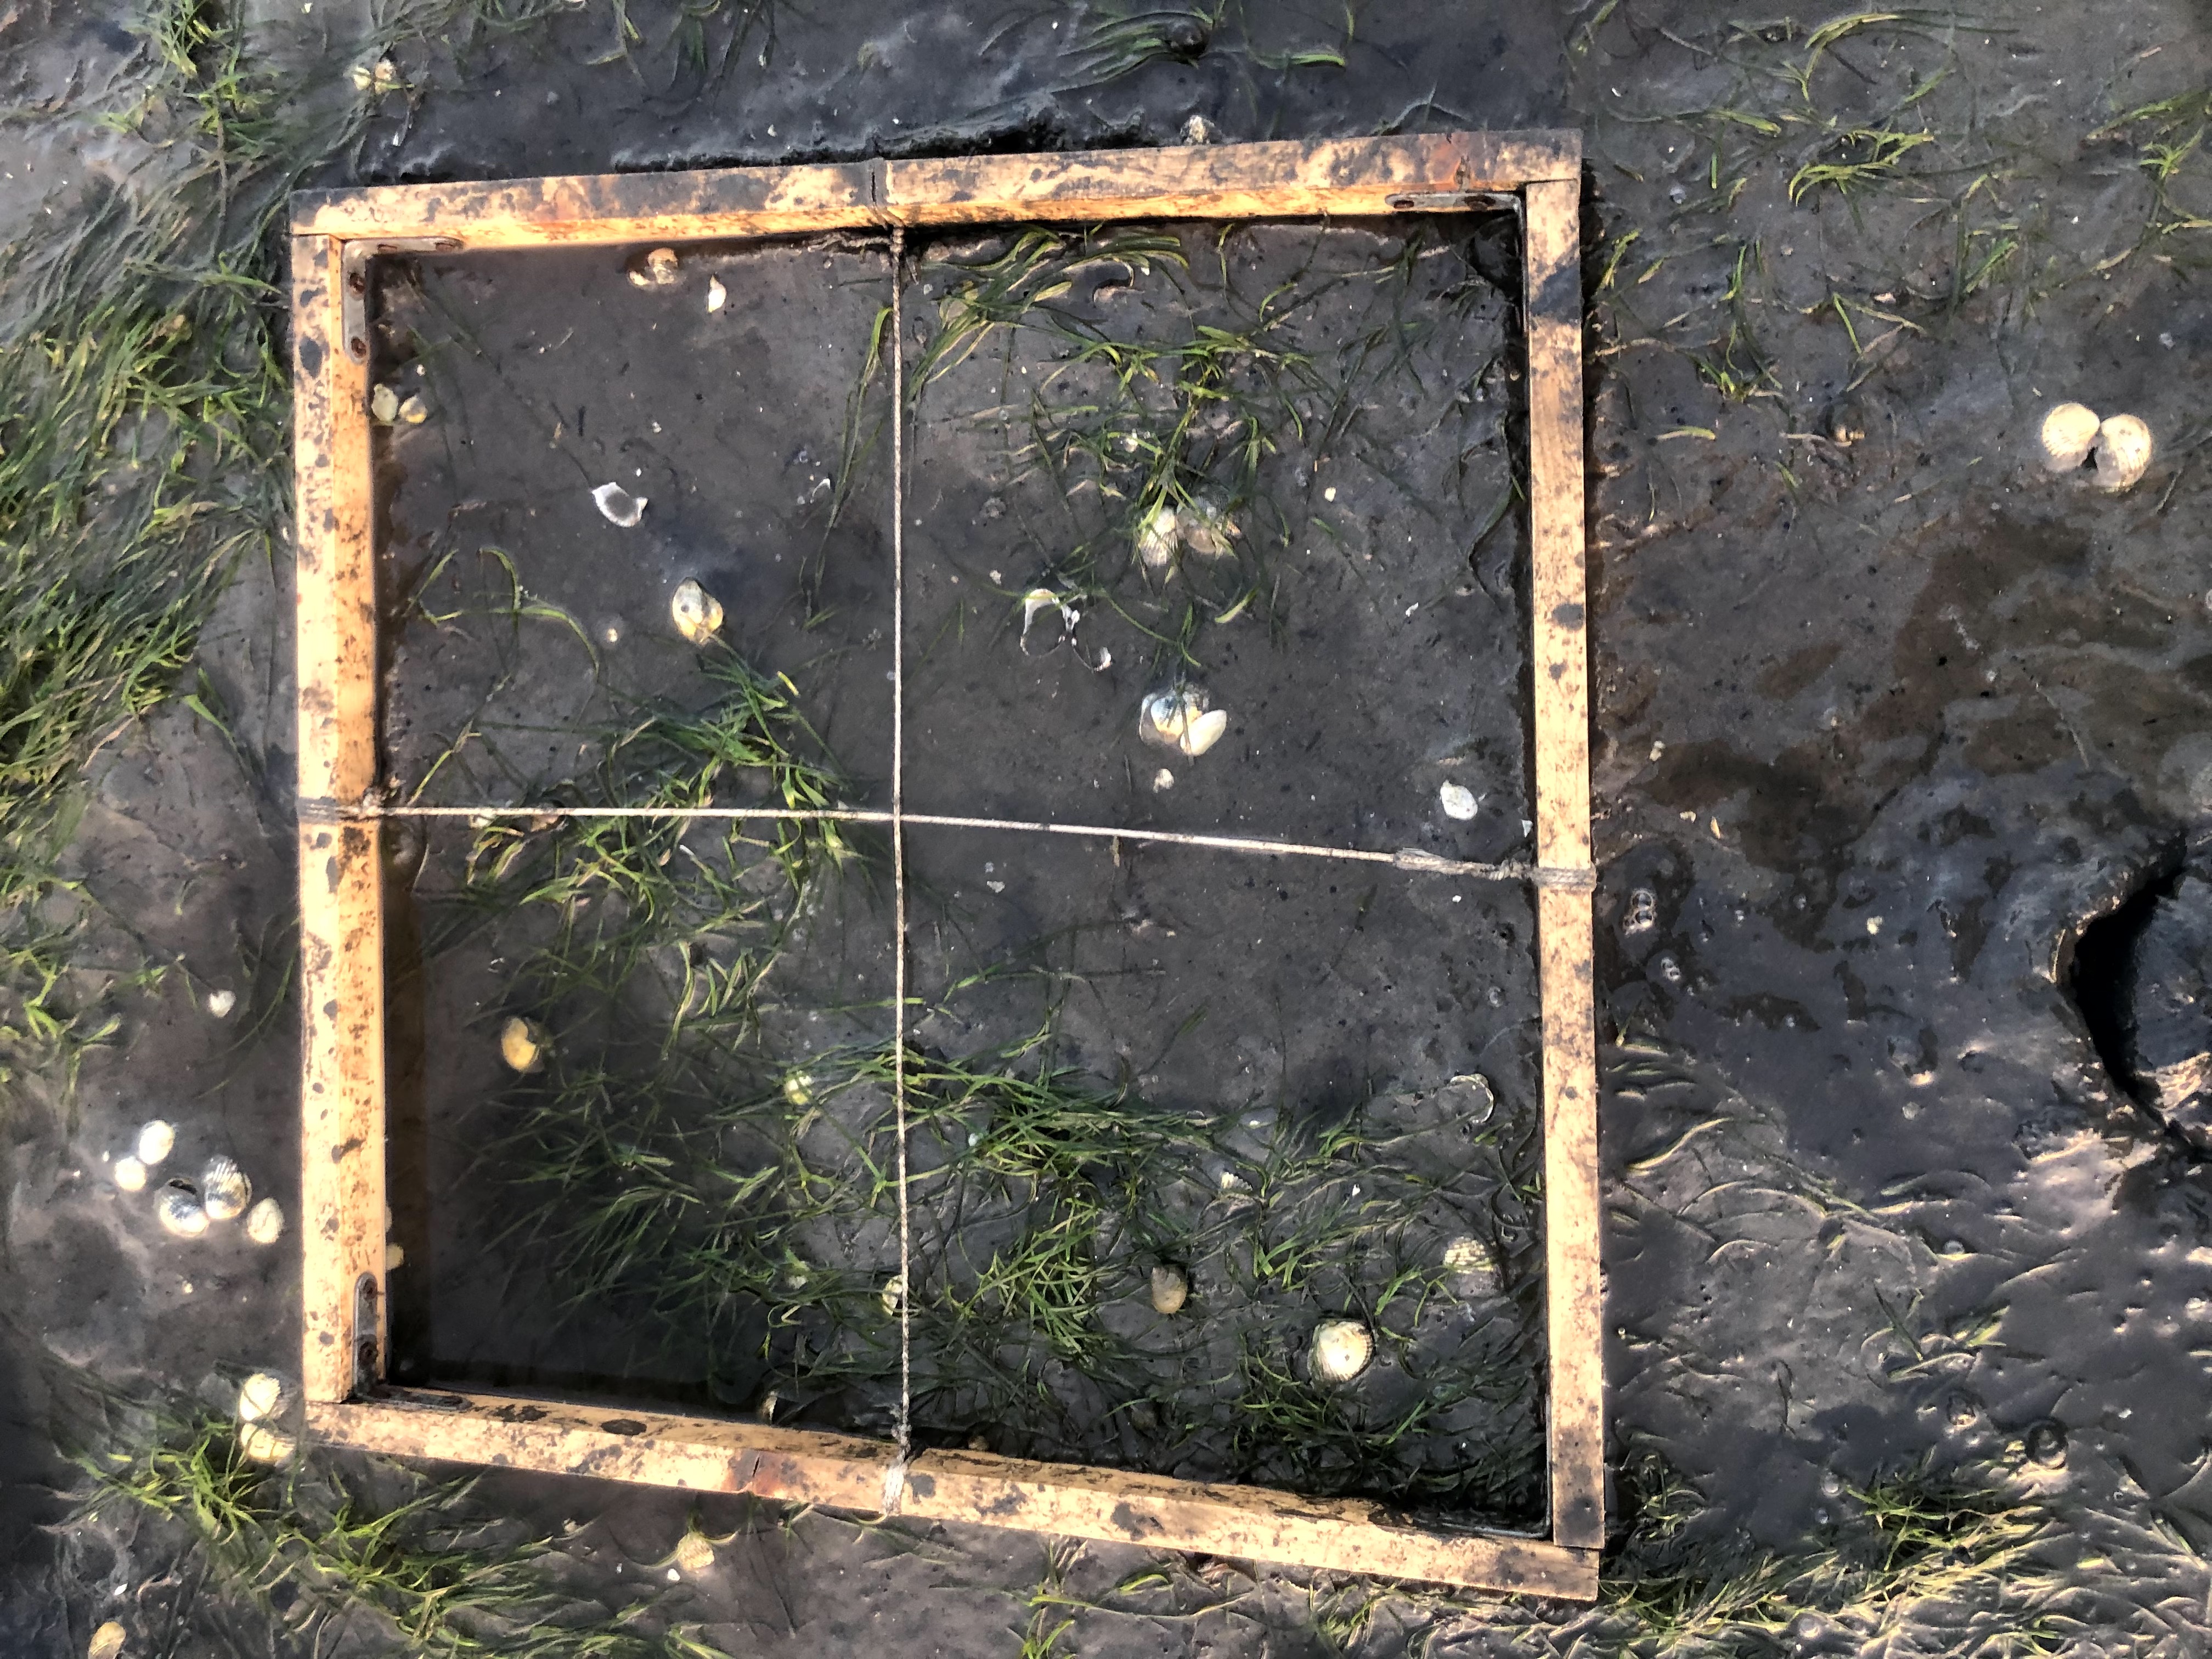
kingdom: Plantae
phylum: Tracheophyta
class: Liliopsida
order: Alismatales
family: Zosteraceae
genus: Zostera
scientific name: Zostera noltii
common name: Dwarf eelgrass
